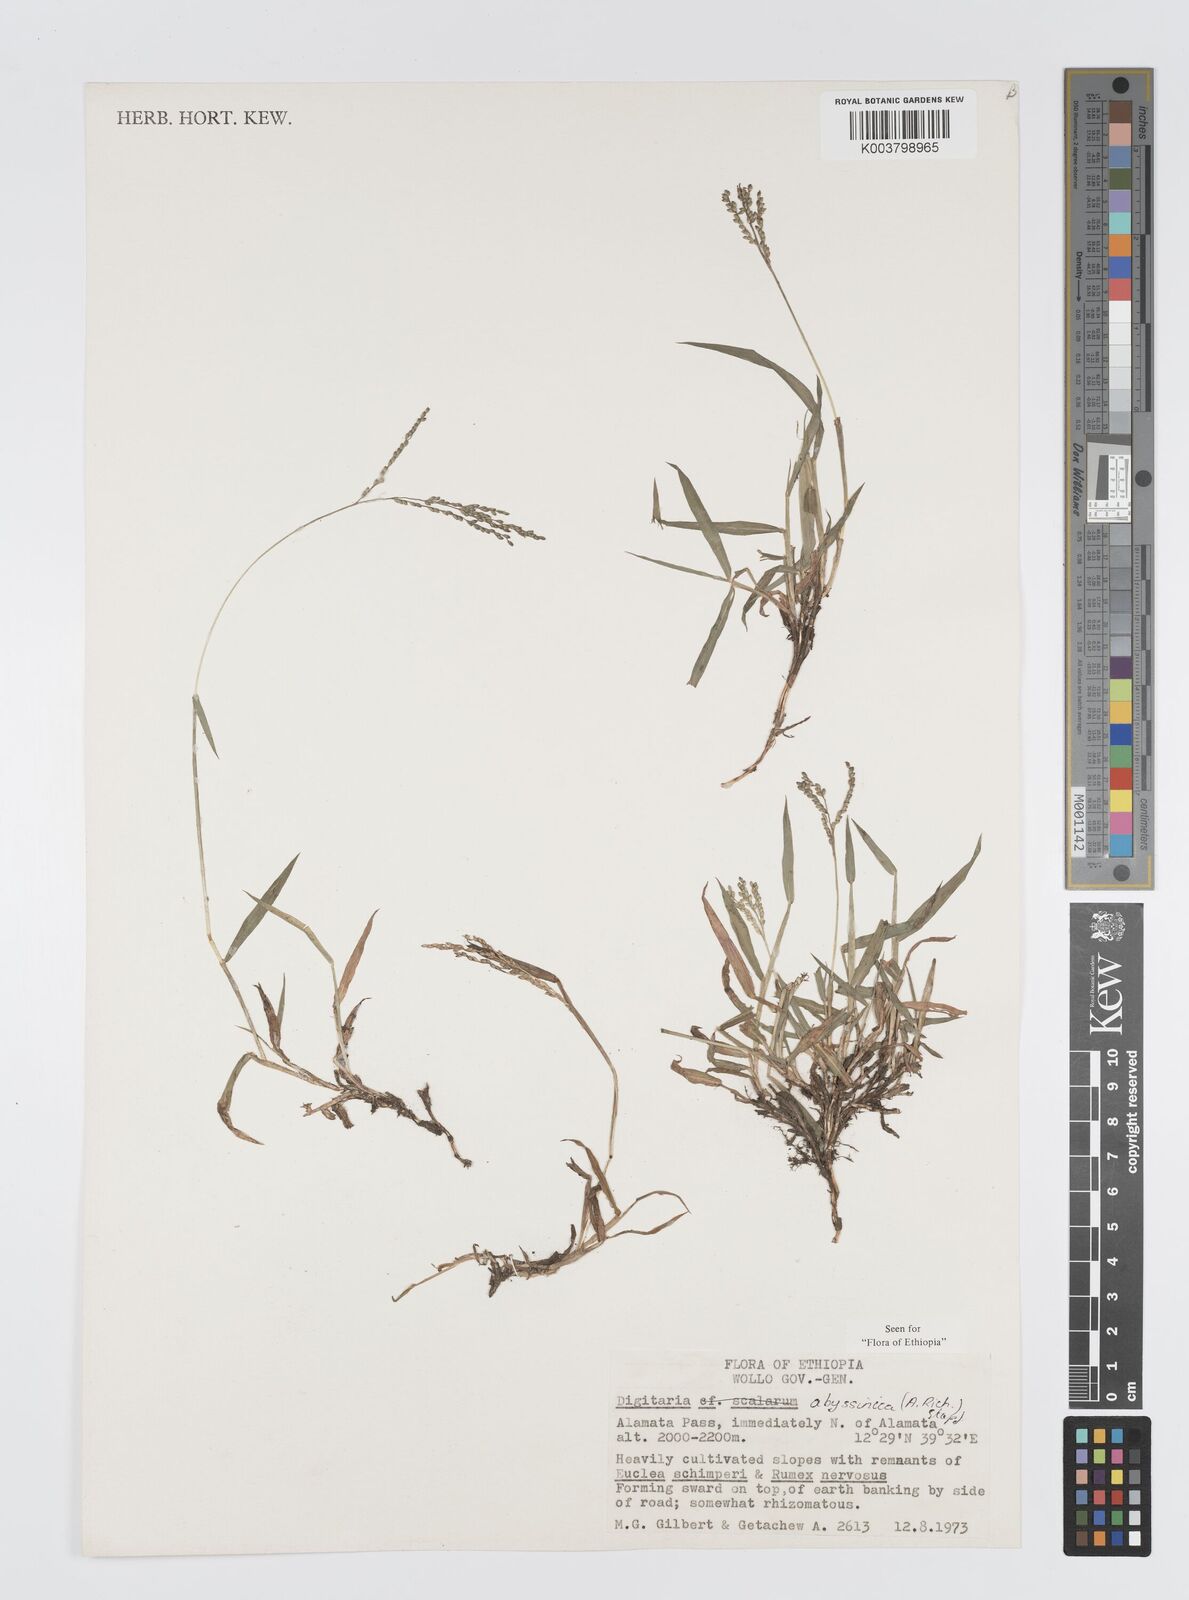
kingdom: Plantae
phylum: Tracheophyta
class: Liliopsida
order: Poales
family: Poaceae
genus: Digitaria
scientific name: Digitaria abyssinica
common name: African couchgrass
